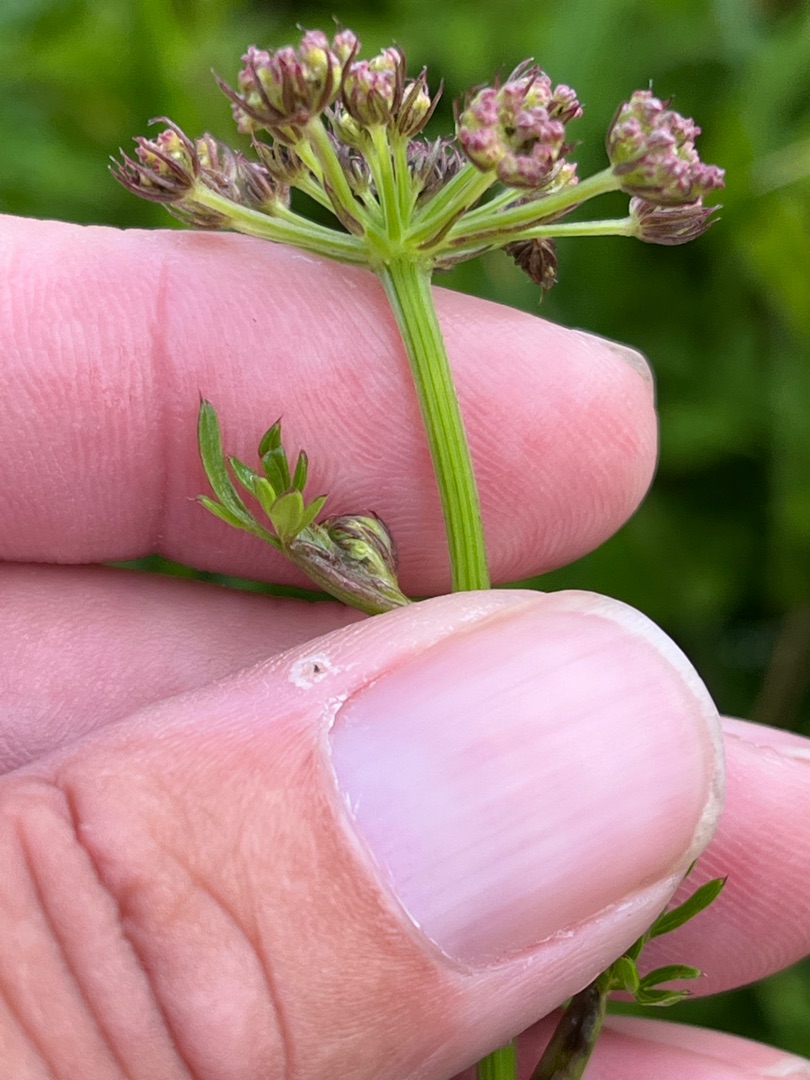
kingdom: Plantae
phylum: Tracheophyta
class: Magnoliopsida
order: Apiales
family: Apiaceae
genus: Selinum
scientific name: Selinum carvifolia
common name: Seline
